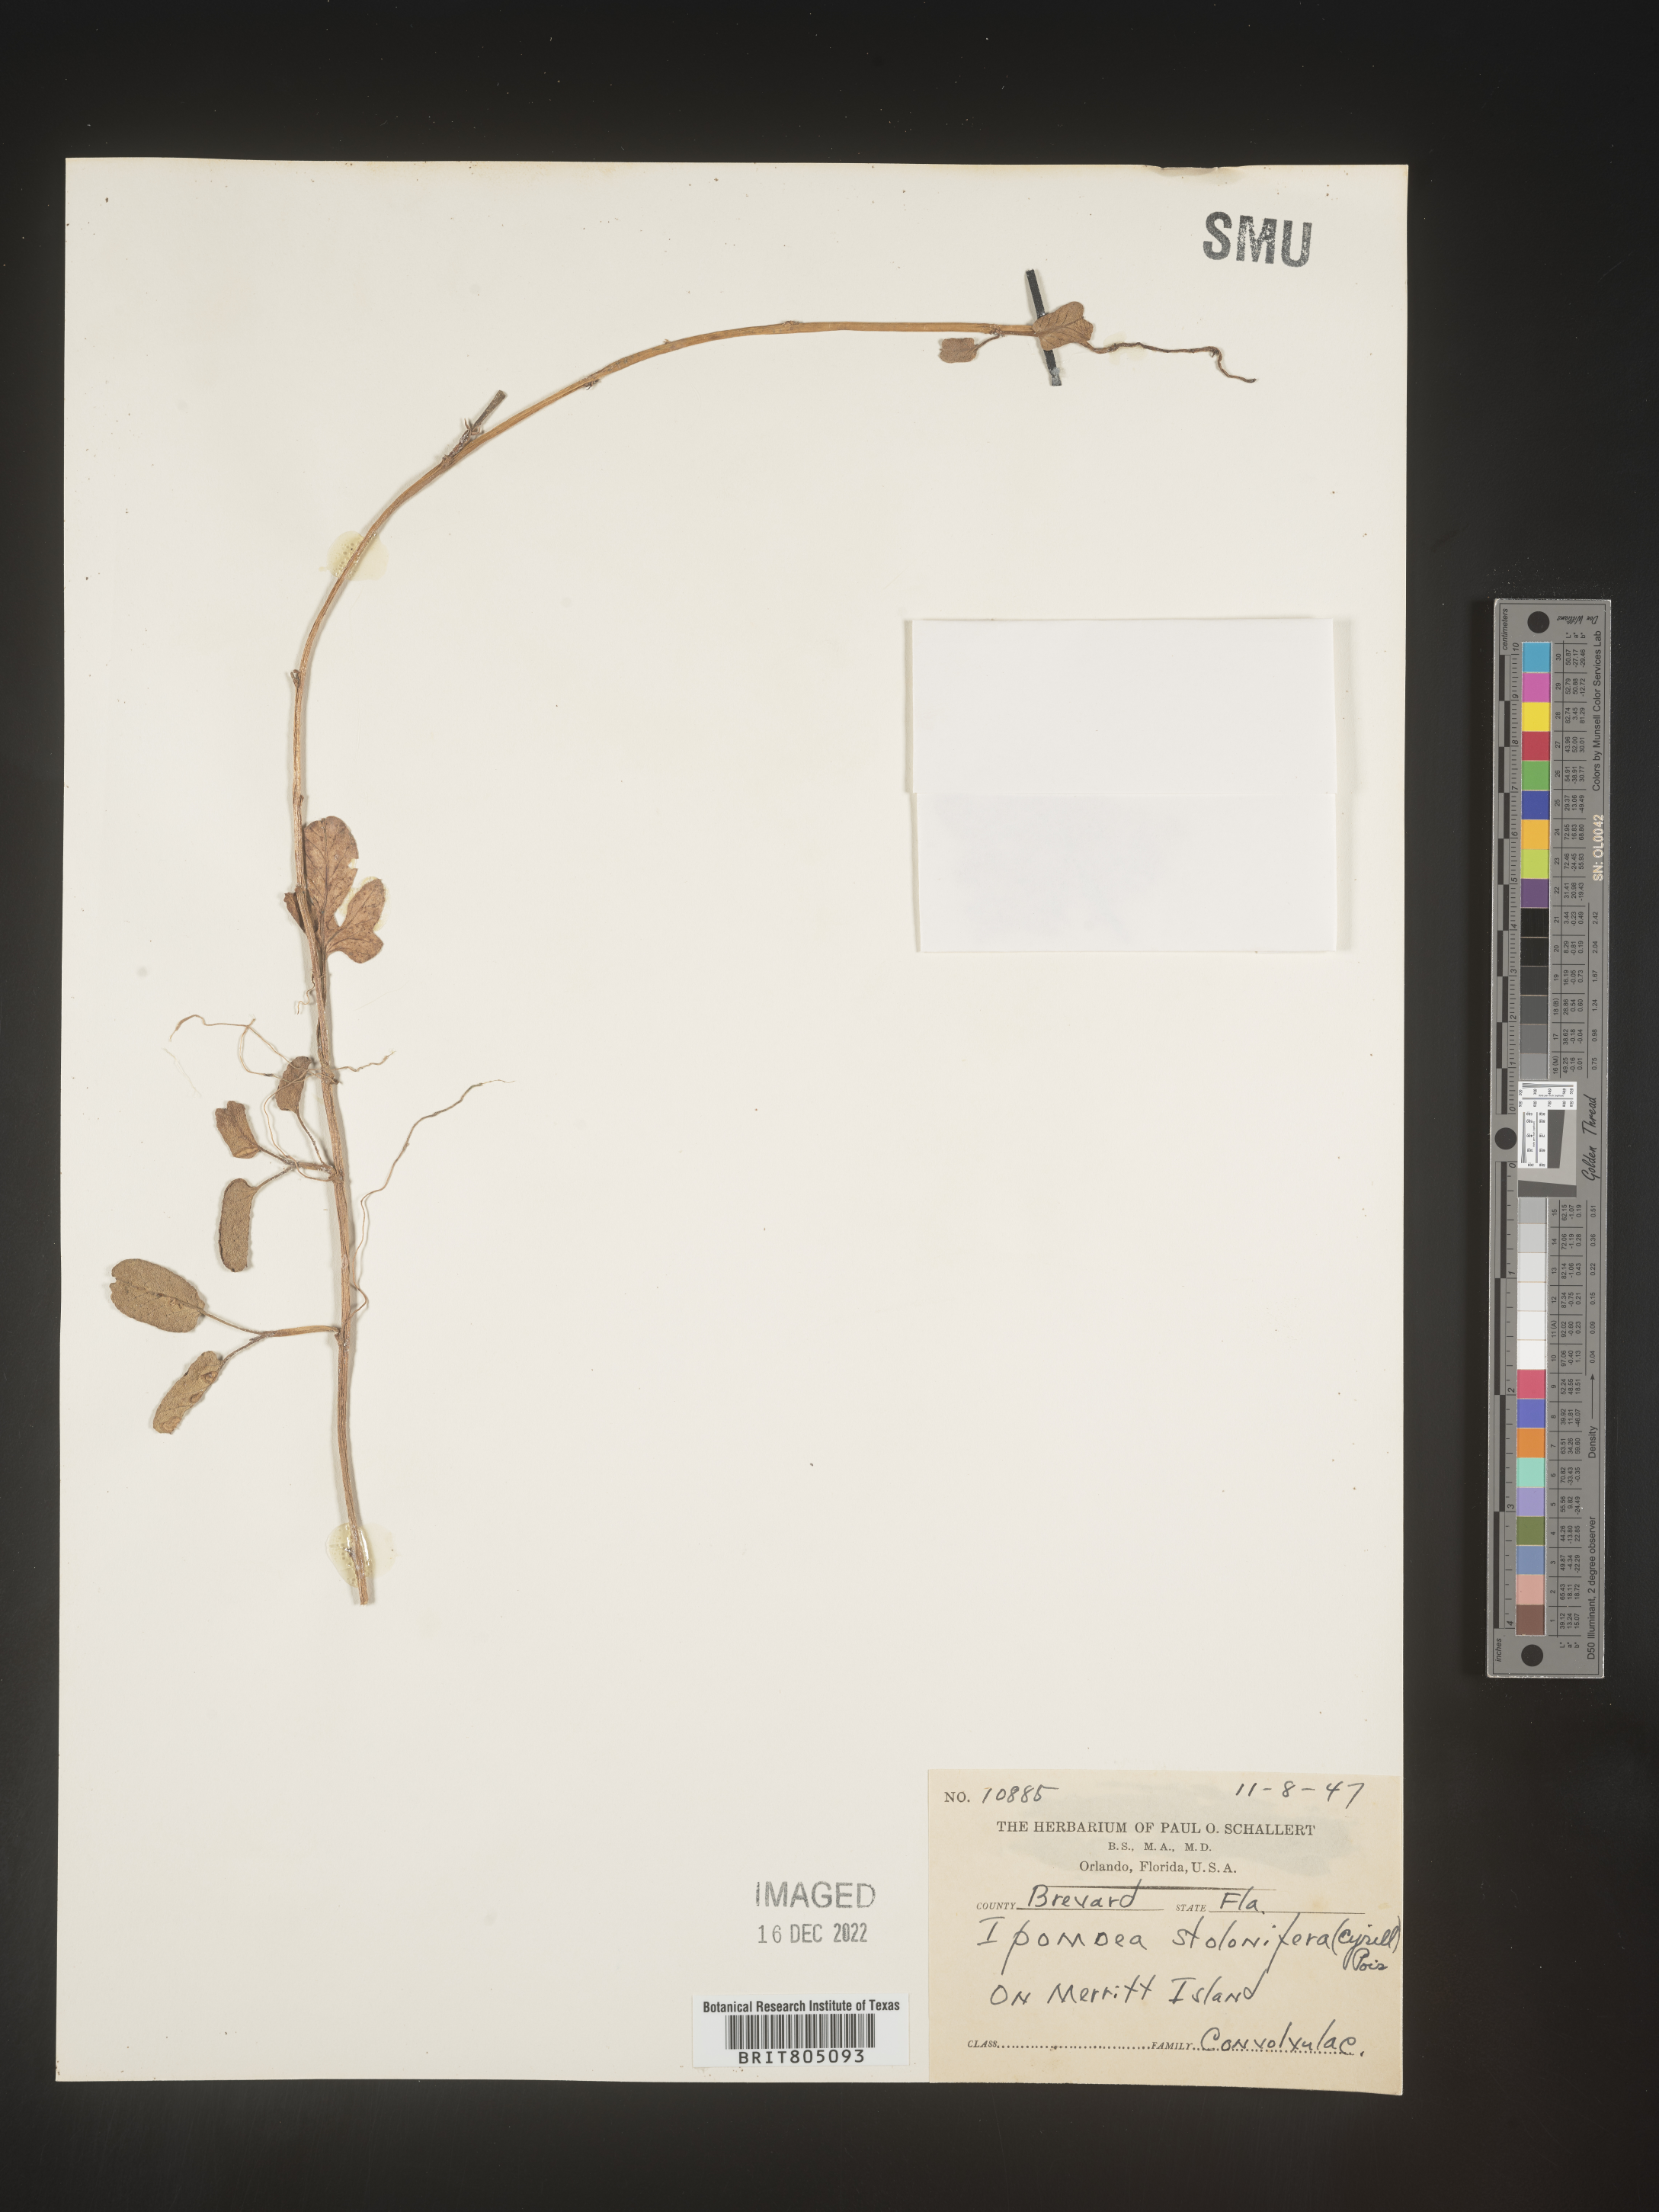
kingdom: Plantae
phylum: Tracheophyta
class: Magnoliopsida
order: Solanales
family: Convolvulaceae
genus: Ipomoea
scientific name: Ipomoea imperati
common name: Fiddle-leaf morning-glory
